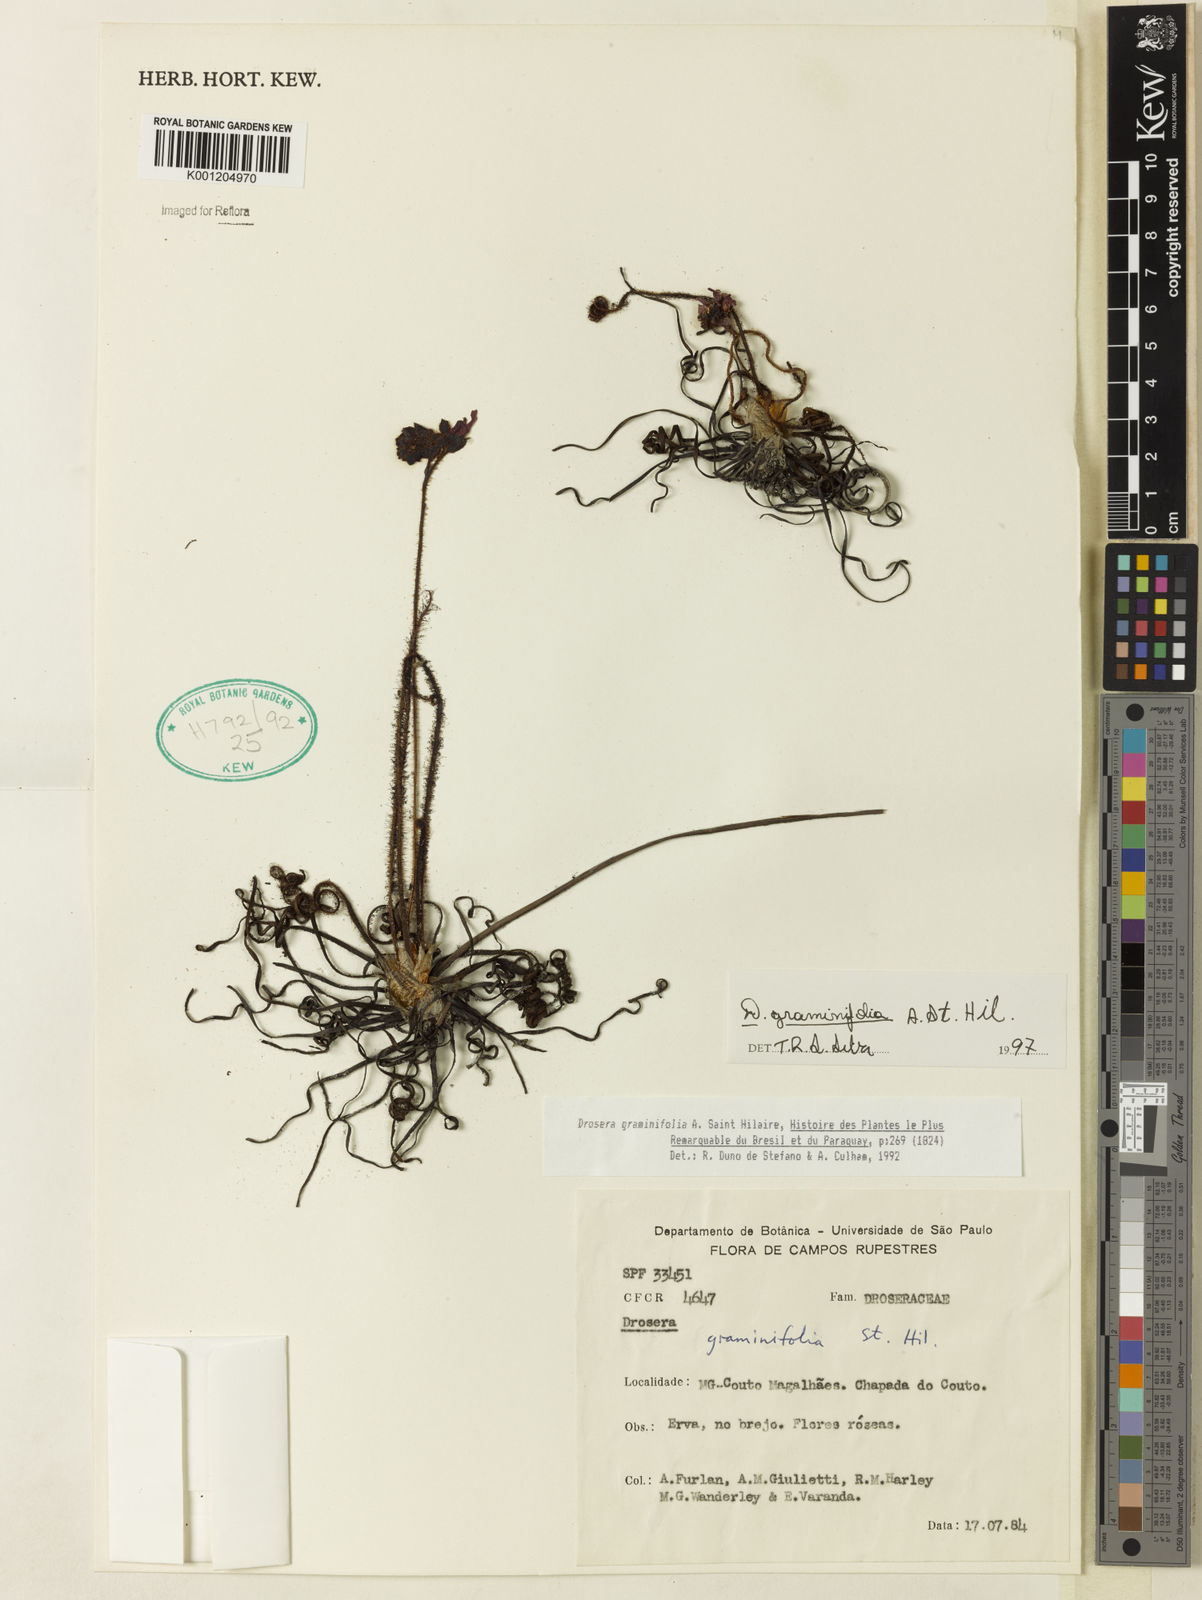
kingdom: Plantae
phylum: Tracheophyta
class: Magnoliopsida
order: Caryophyllales
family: Droseraceae
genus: Drosera
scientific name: Drosera graminifolia
